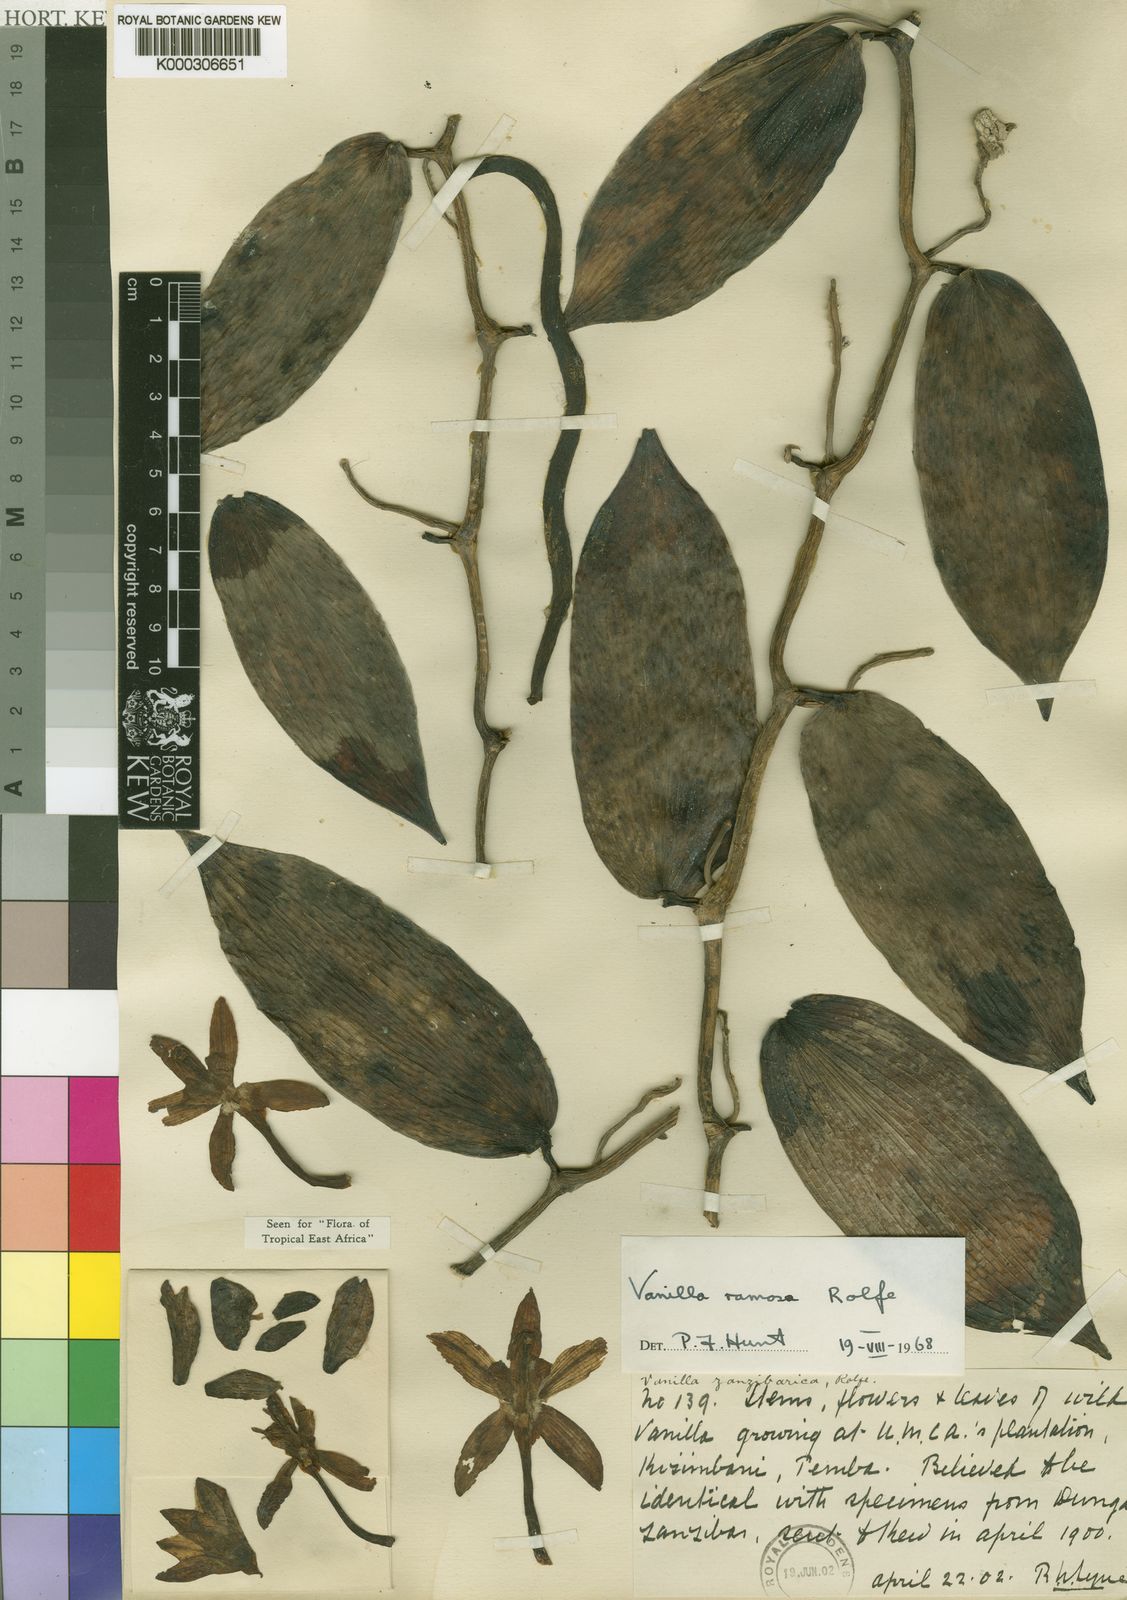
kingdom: Plantae
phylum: Tracheophyta
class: Liliopsida
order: Asparagales
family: Orchidaceae
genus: Vanilla
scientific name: Vanilla ramosa
